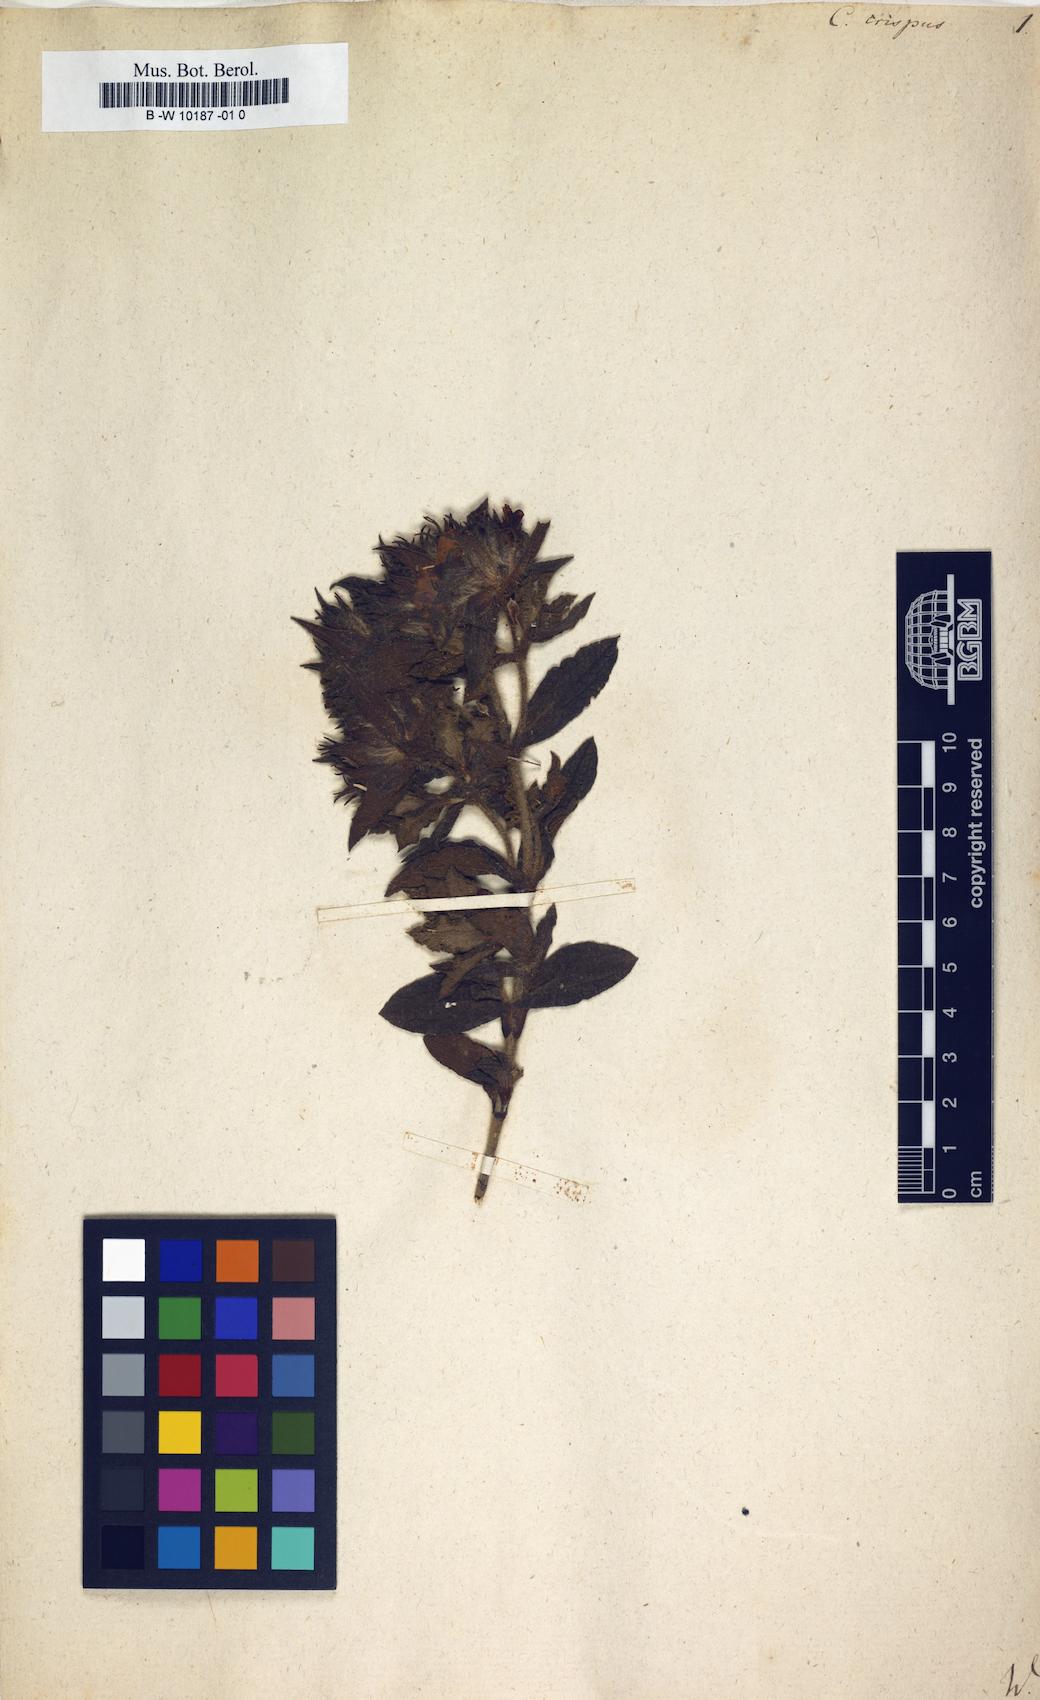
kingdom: Plantae
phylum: Tracheophyta
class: Magnoliopsida
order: Malvales
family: Cistaceae
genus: Cistus
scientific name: Cistus crispus
